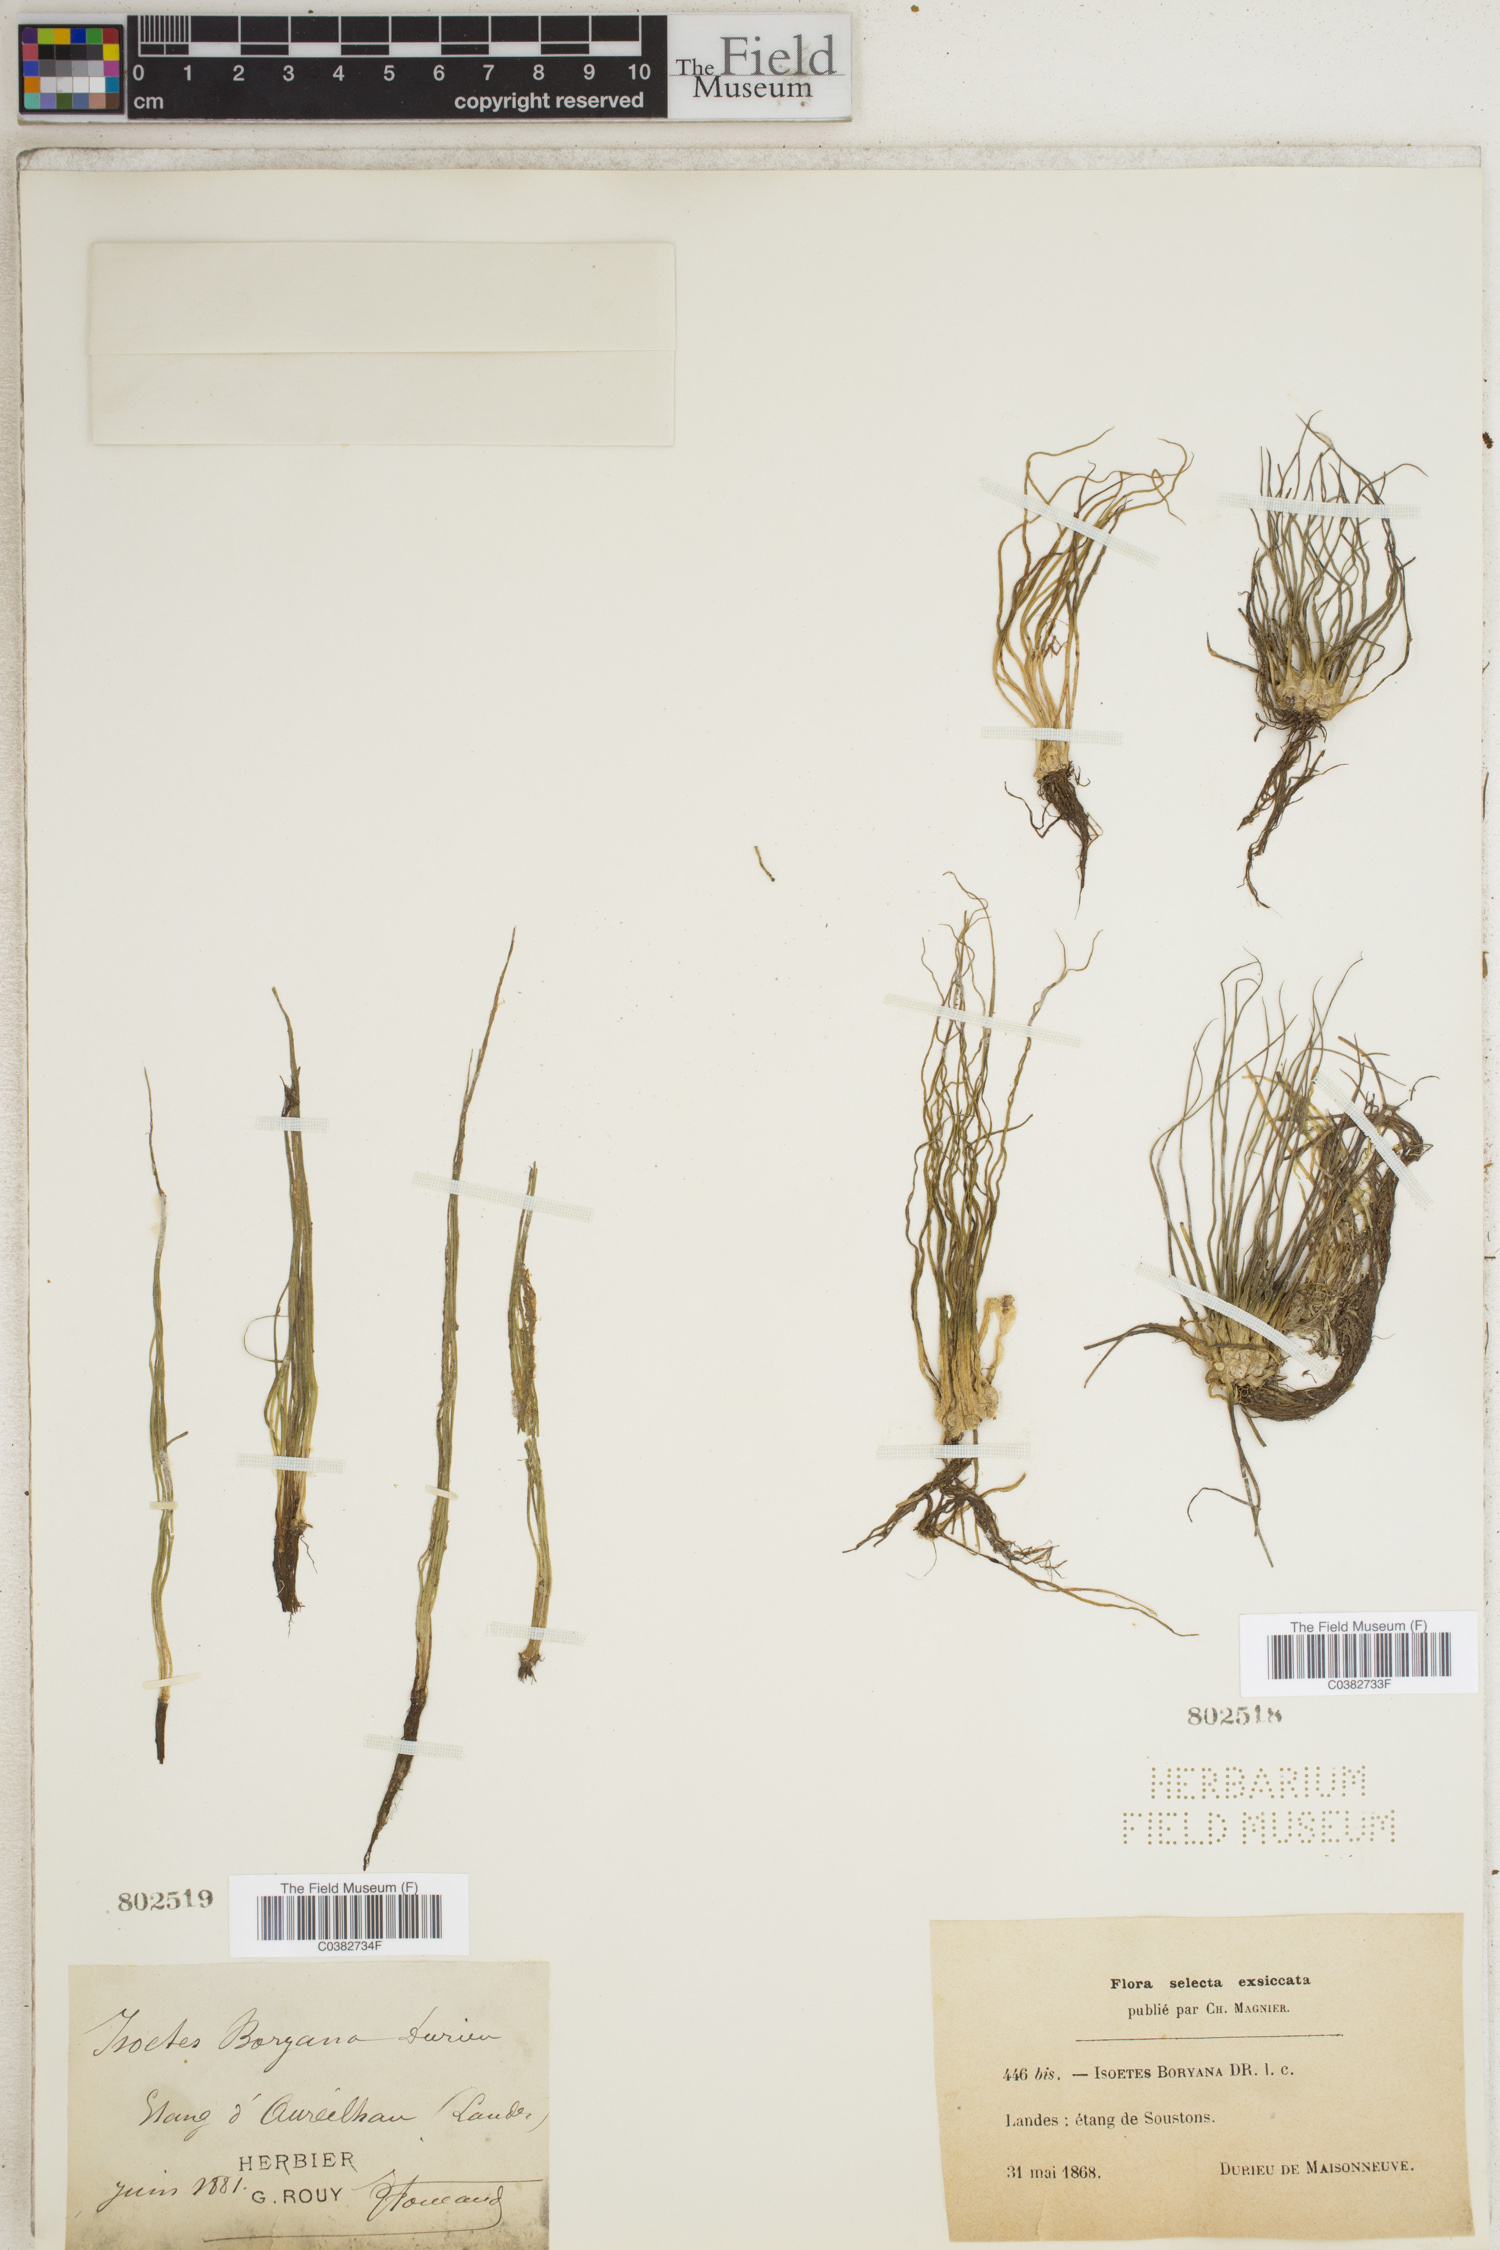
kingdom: Plantae
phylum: Tracheophyta
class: Lycopodiopsida
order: Isoetales
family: Isoetaceae
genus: Isoetes
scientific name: Isoetes boryana
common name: Gascoyne quillwort
